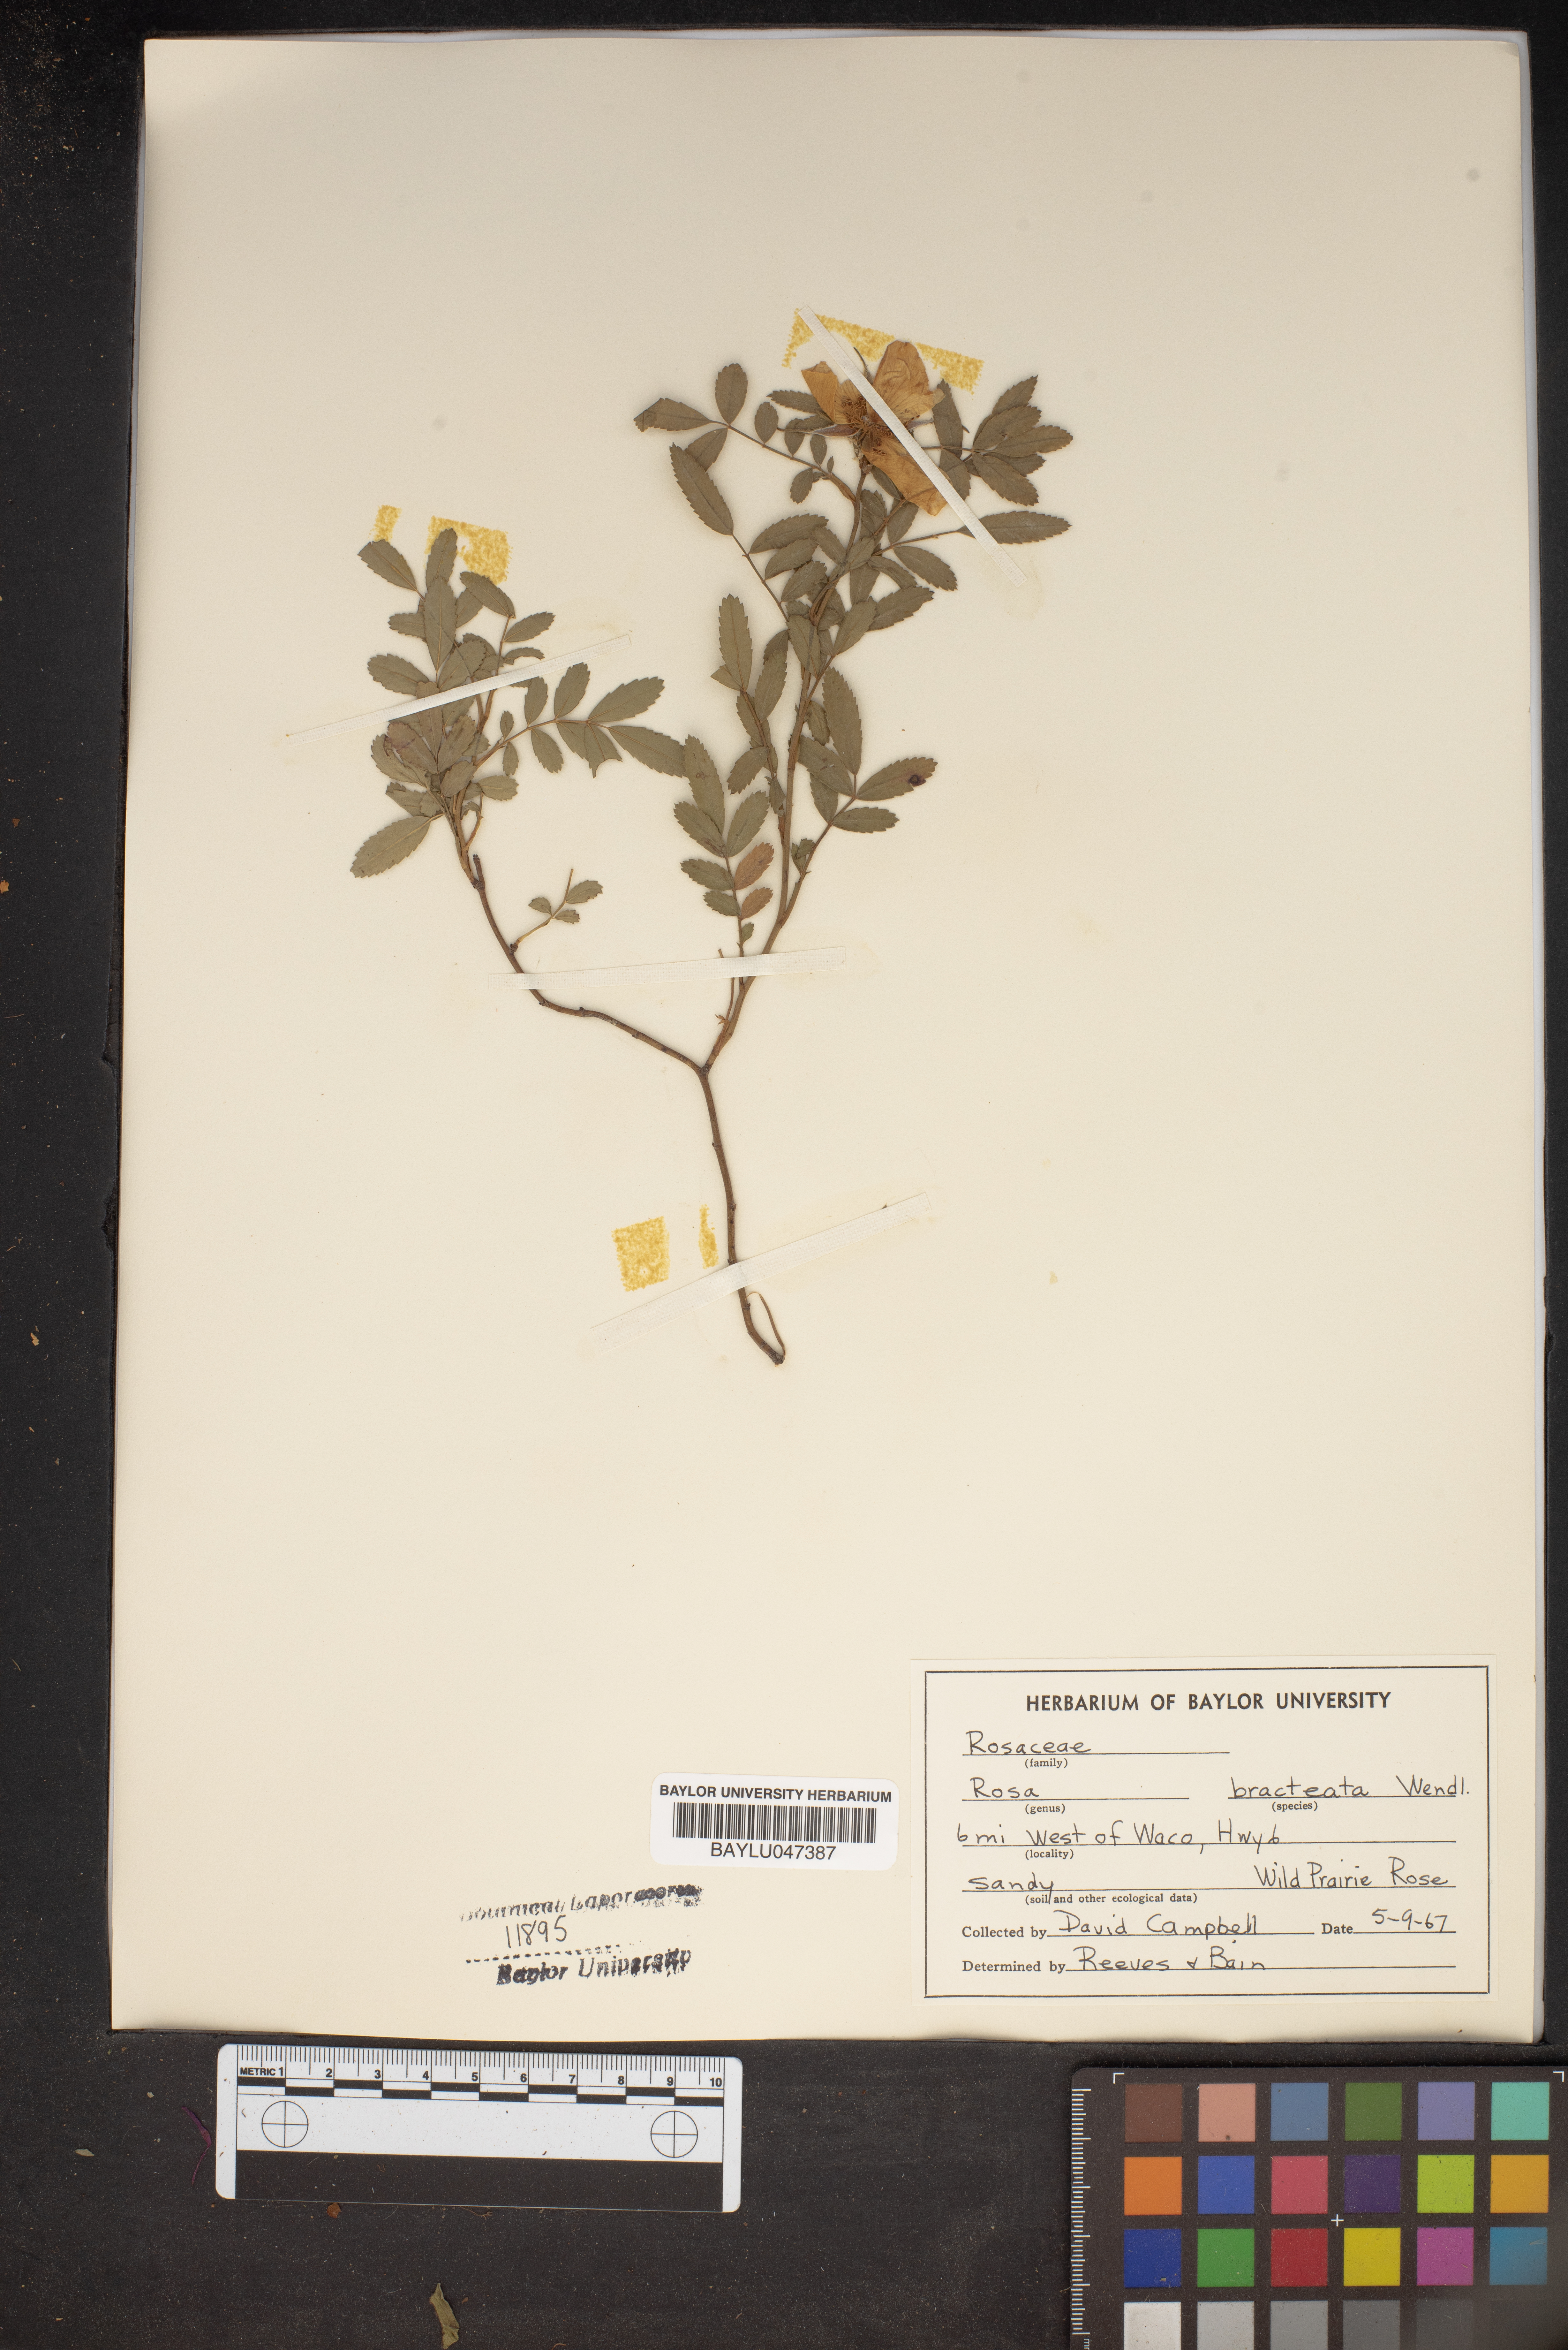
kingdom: Plantae
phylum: Tracheophyta
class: Magnoliopsida
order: Rosales
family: Rosaceae
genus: Rosa
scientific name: Rosa bracteata
